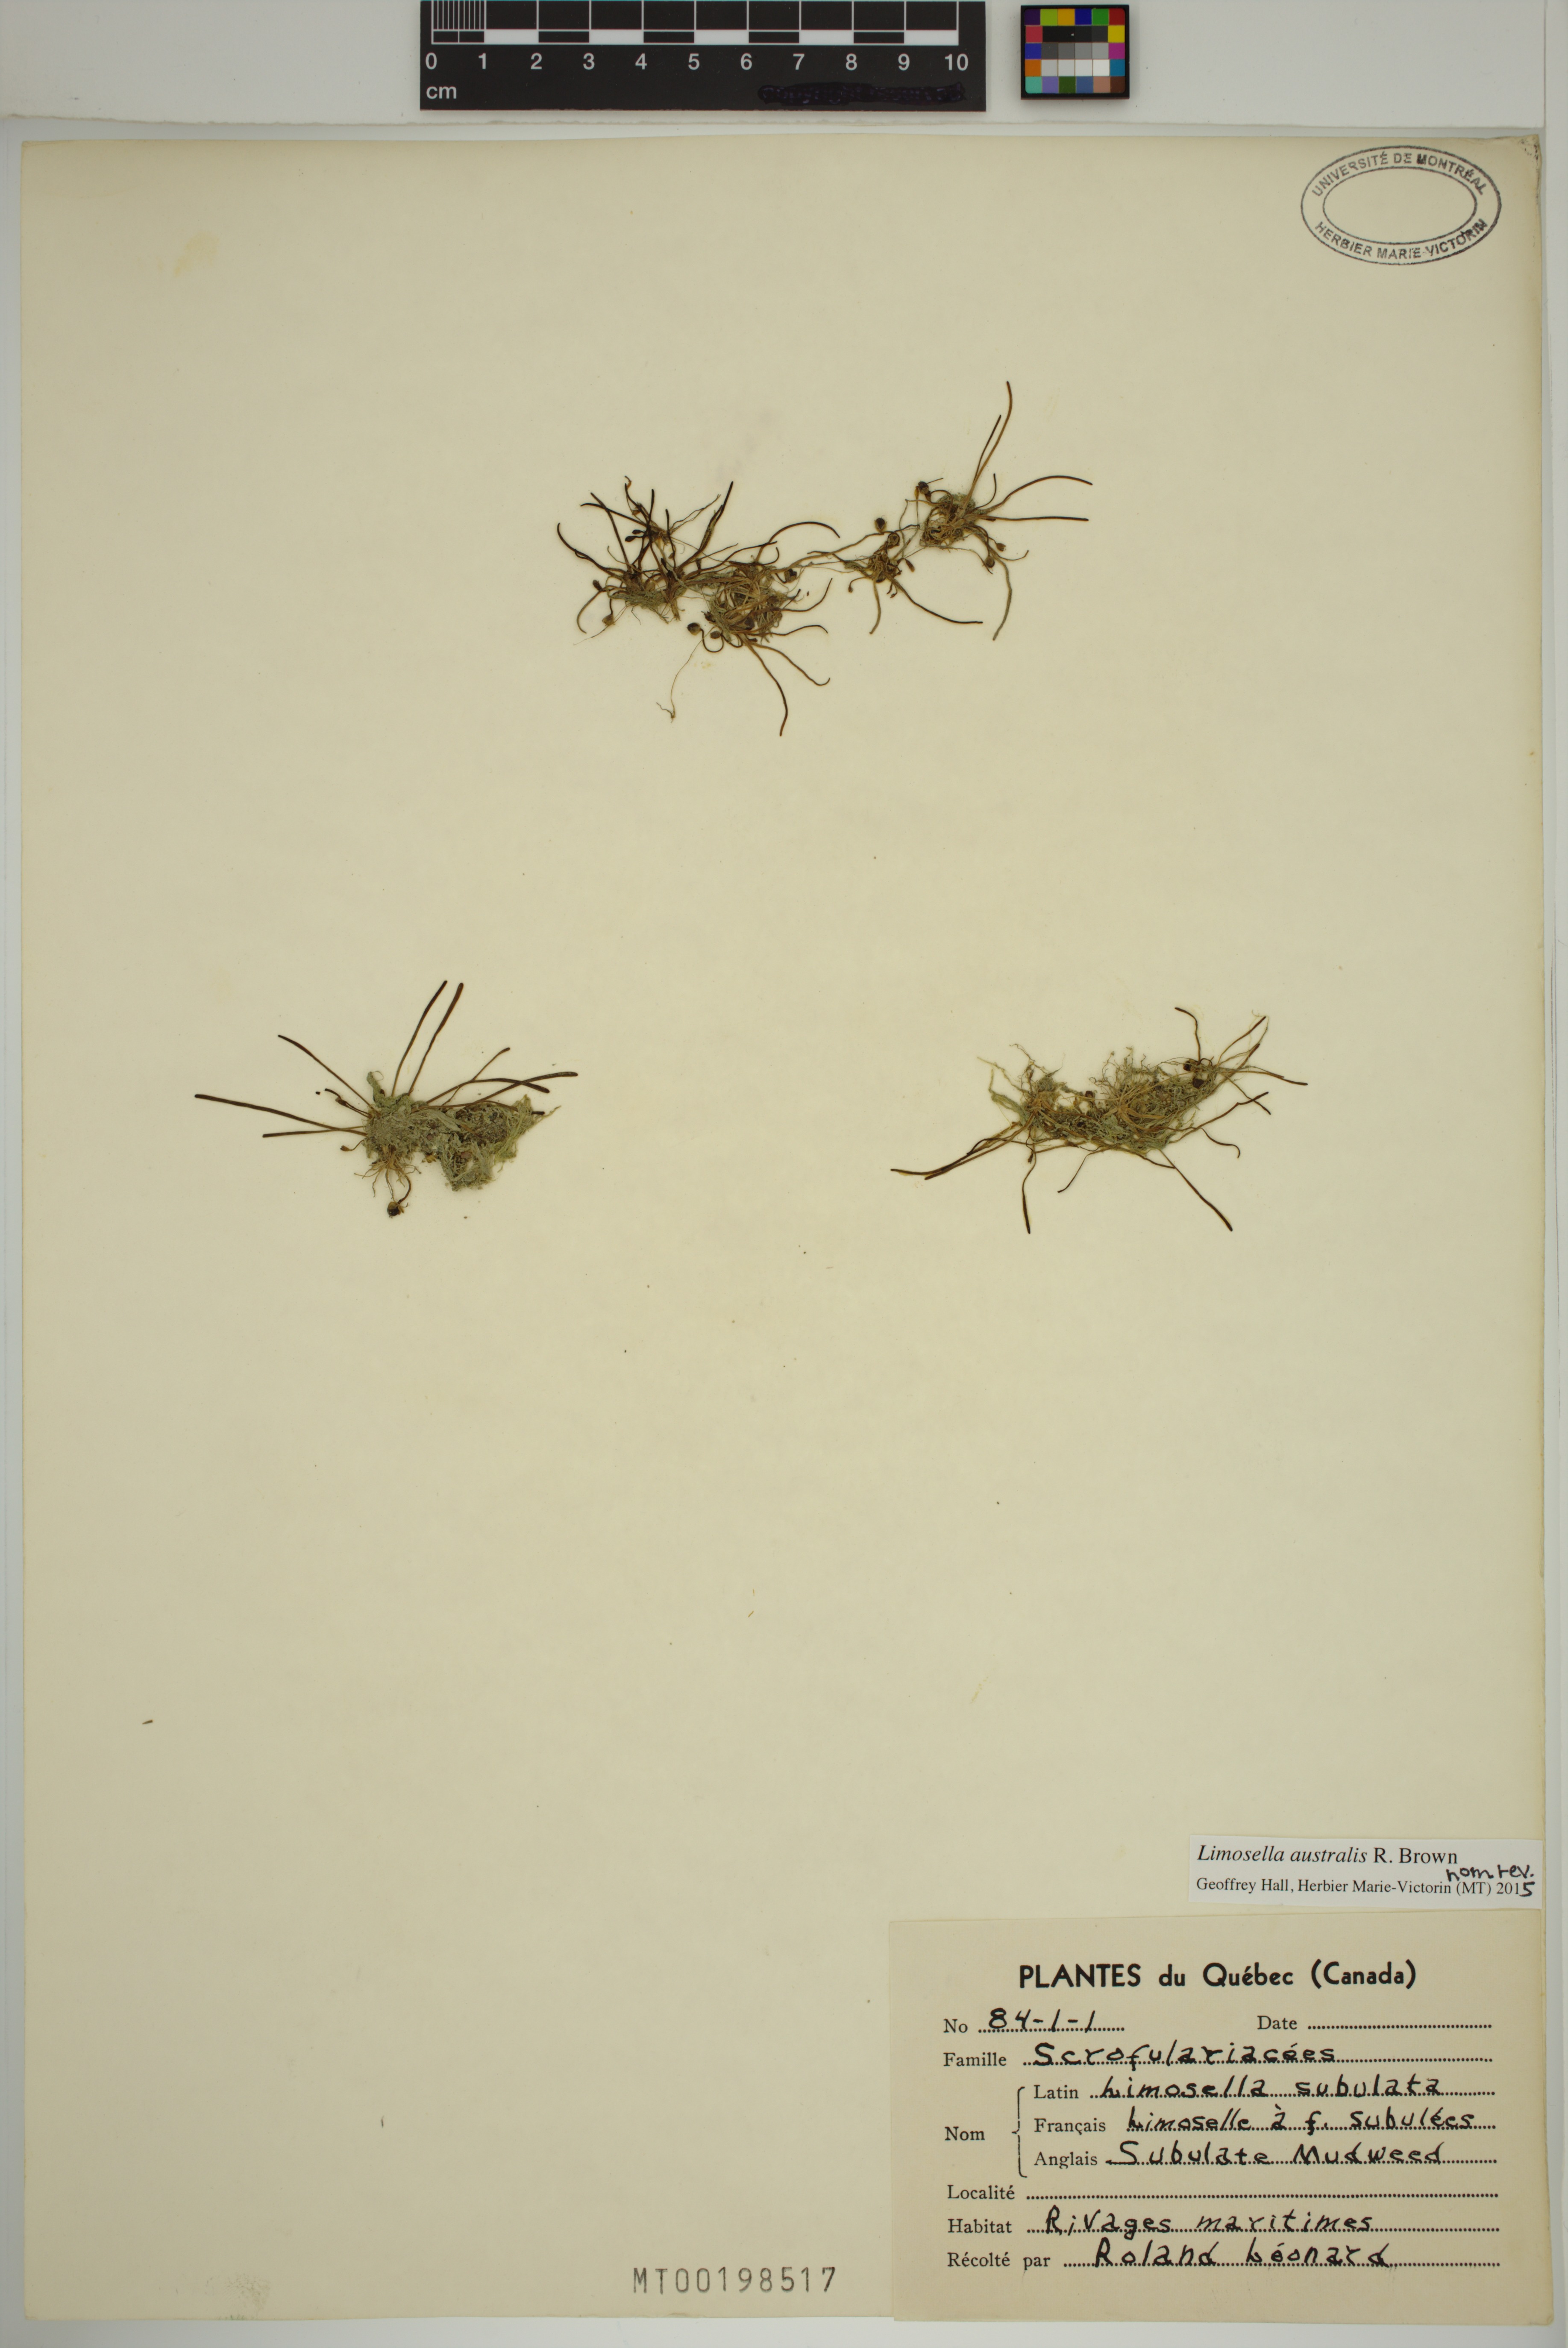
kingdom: Plantae
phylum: Tracheophyta
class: Magnoliopsida
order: Lamiales
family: Scrophulariaceae
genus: Limosella
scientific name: Limosella australis
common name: Welsh mudwort
